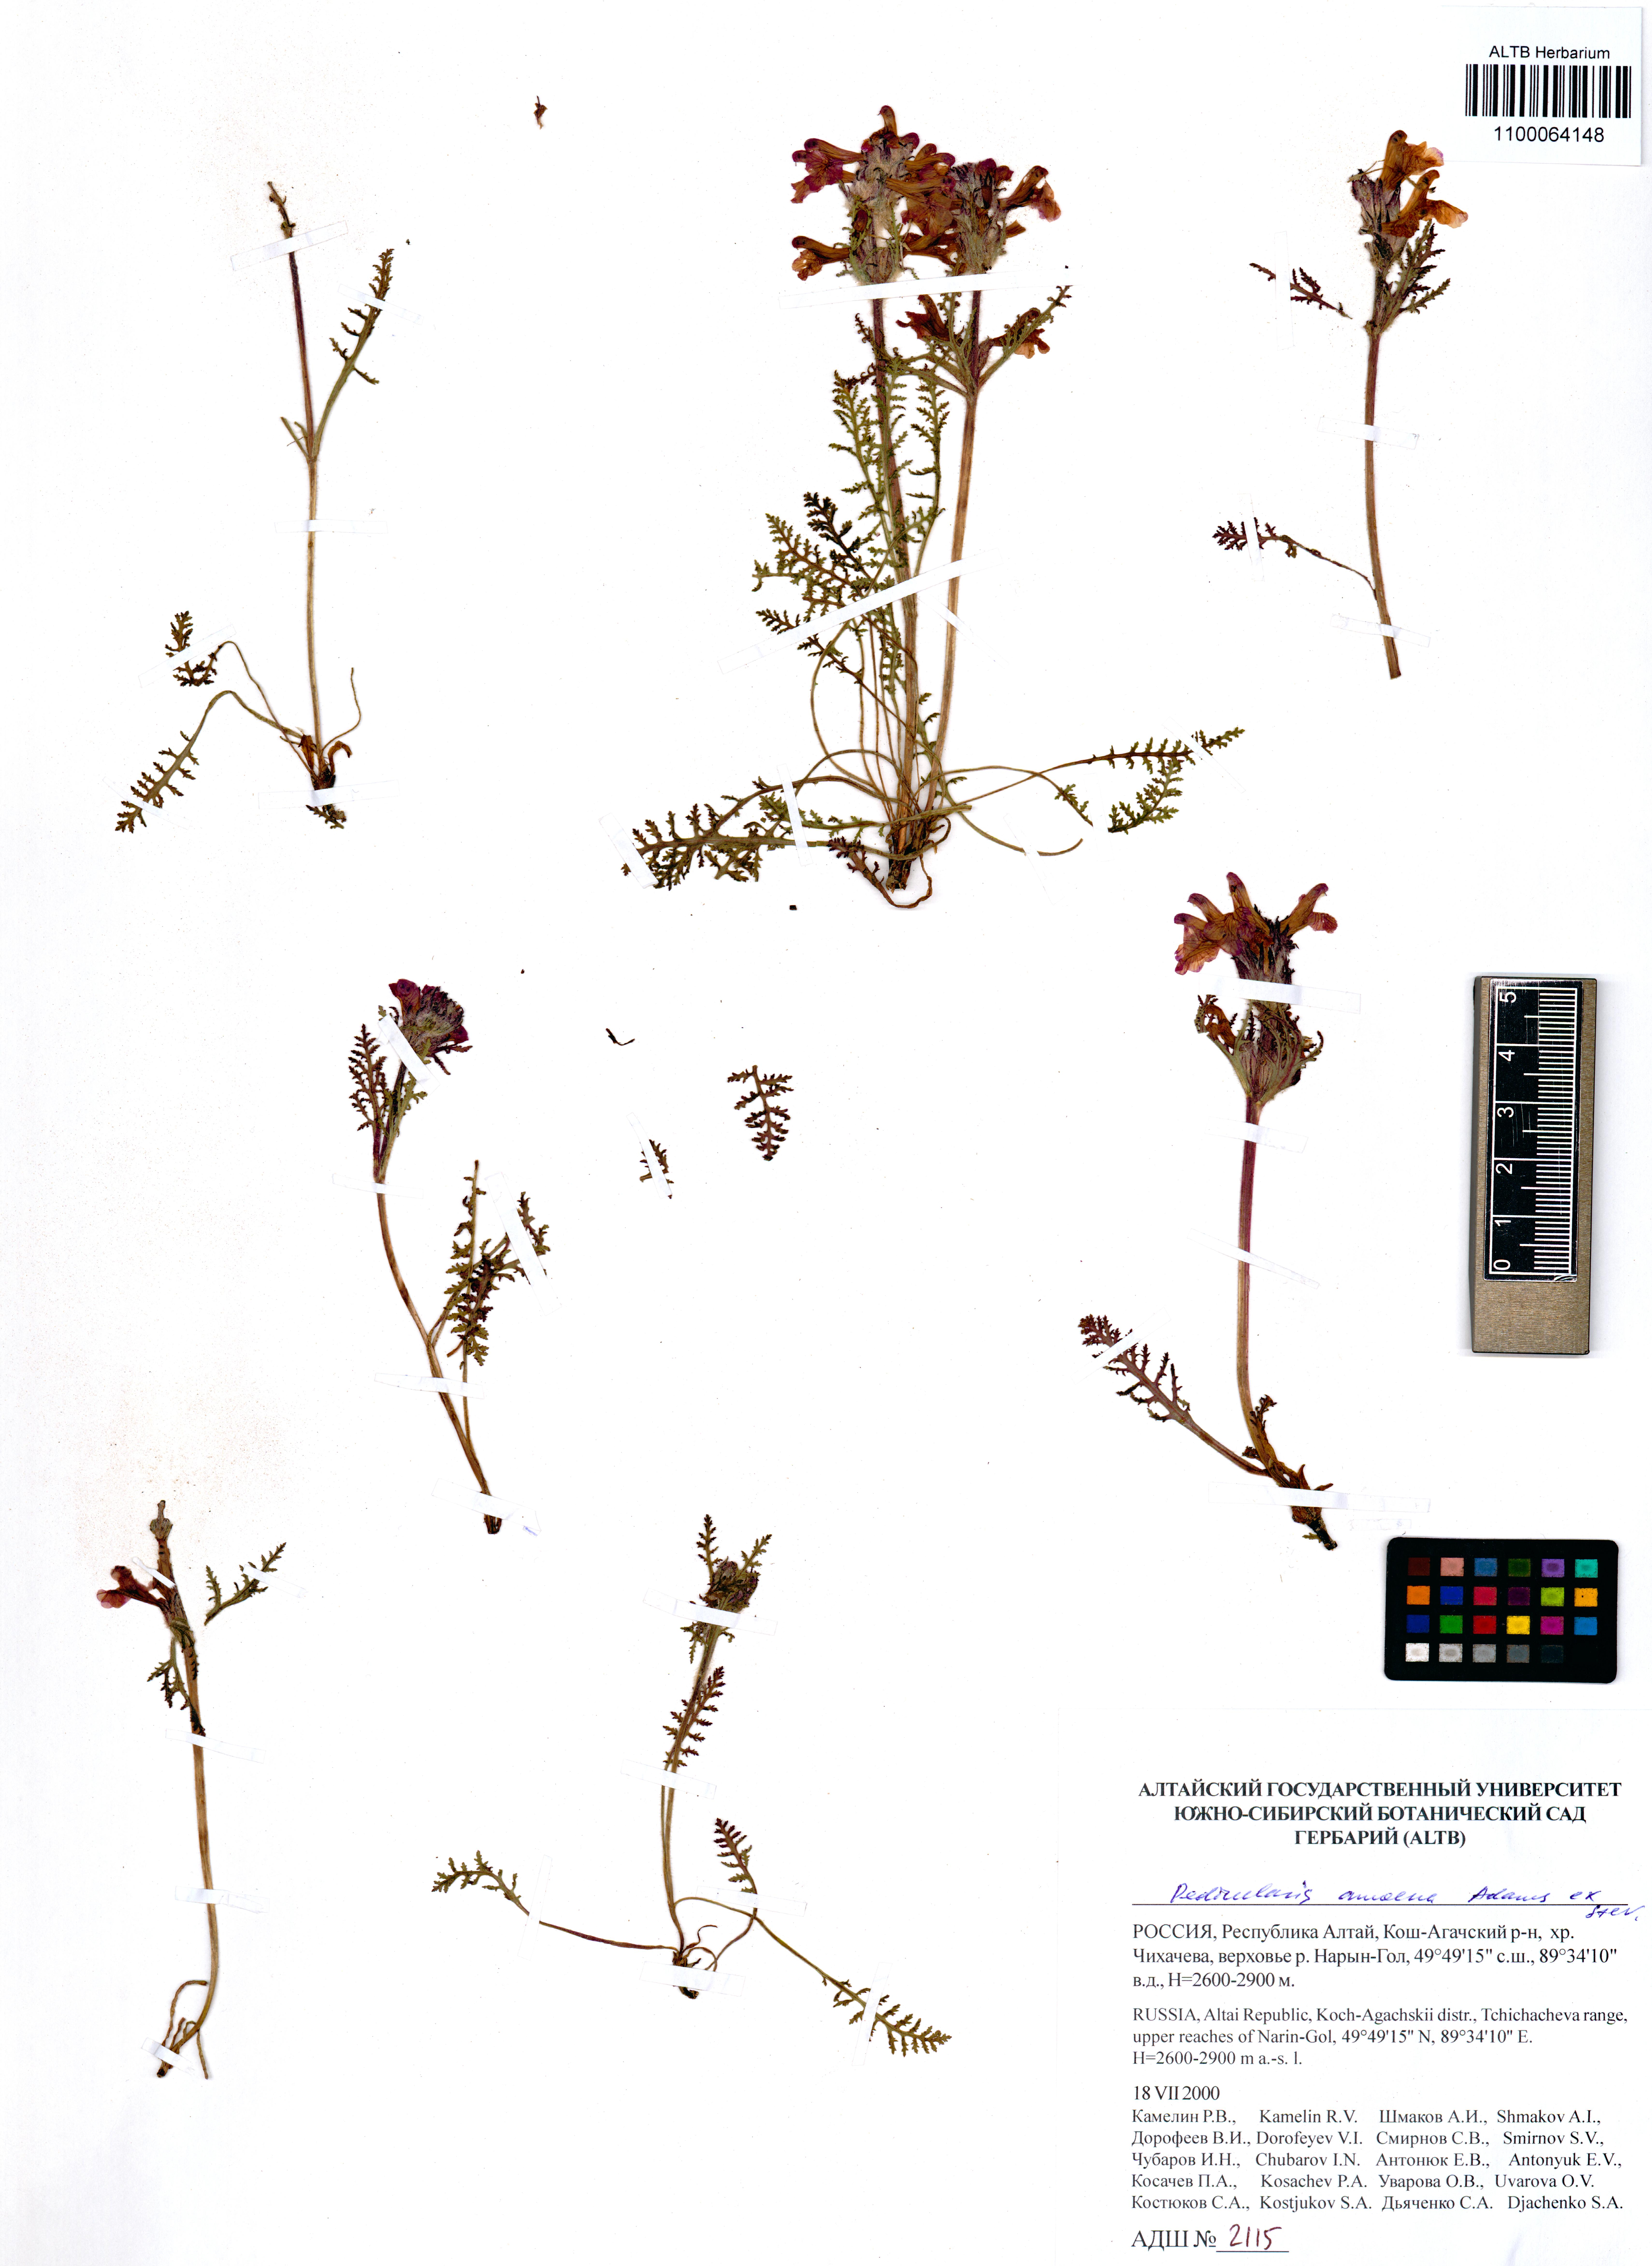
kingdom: Plantae
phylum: Tracheophyta
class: Magnoliopsida
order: Lamiales
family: Orobanchaceae
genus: Pedicularis
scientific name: Pedicularis amoena
